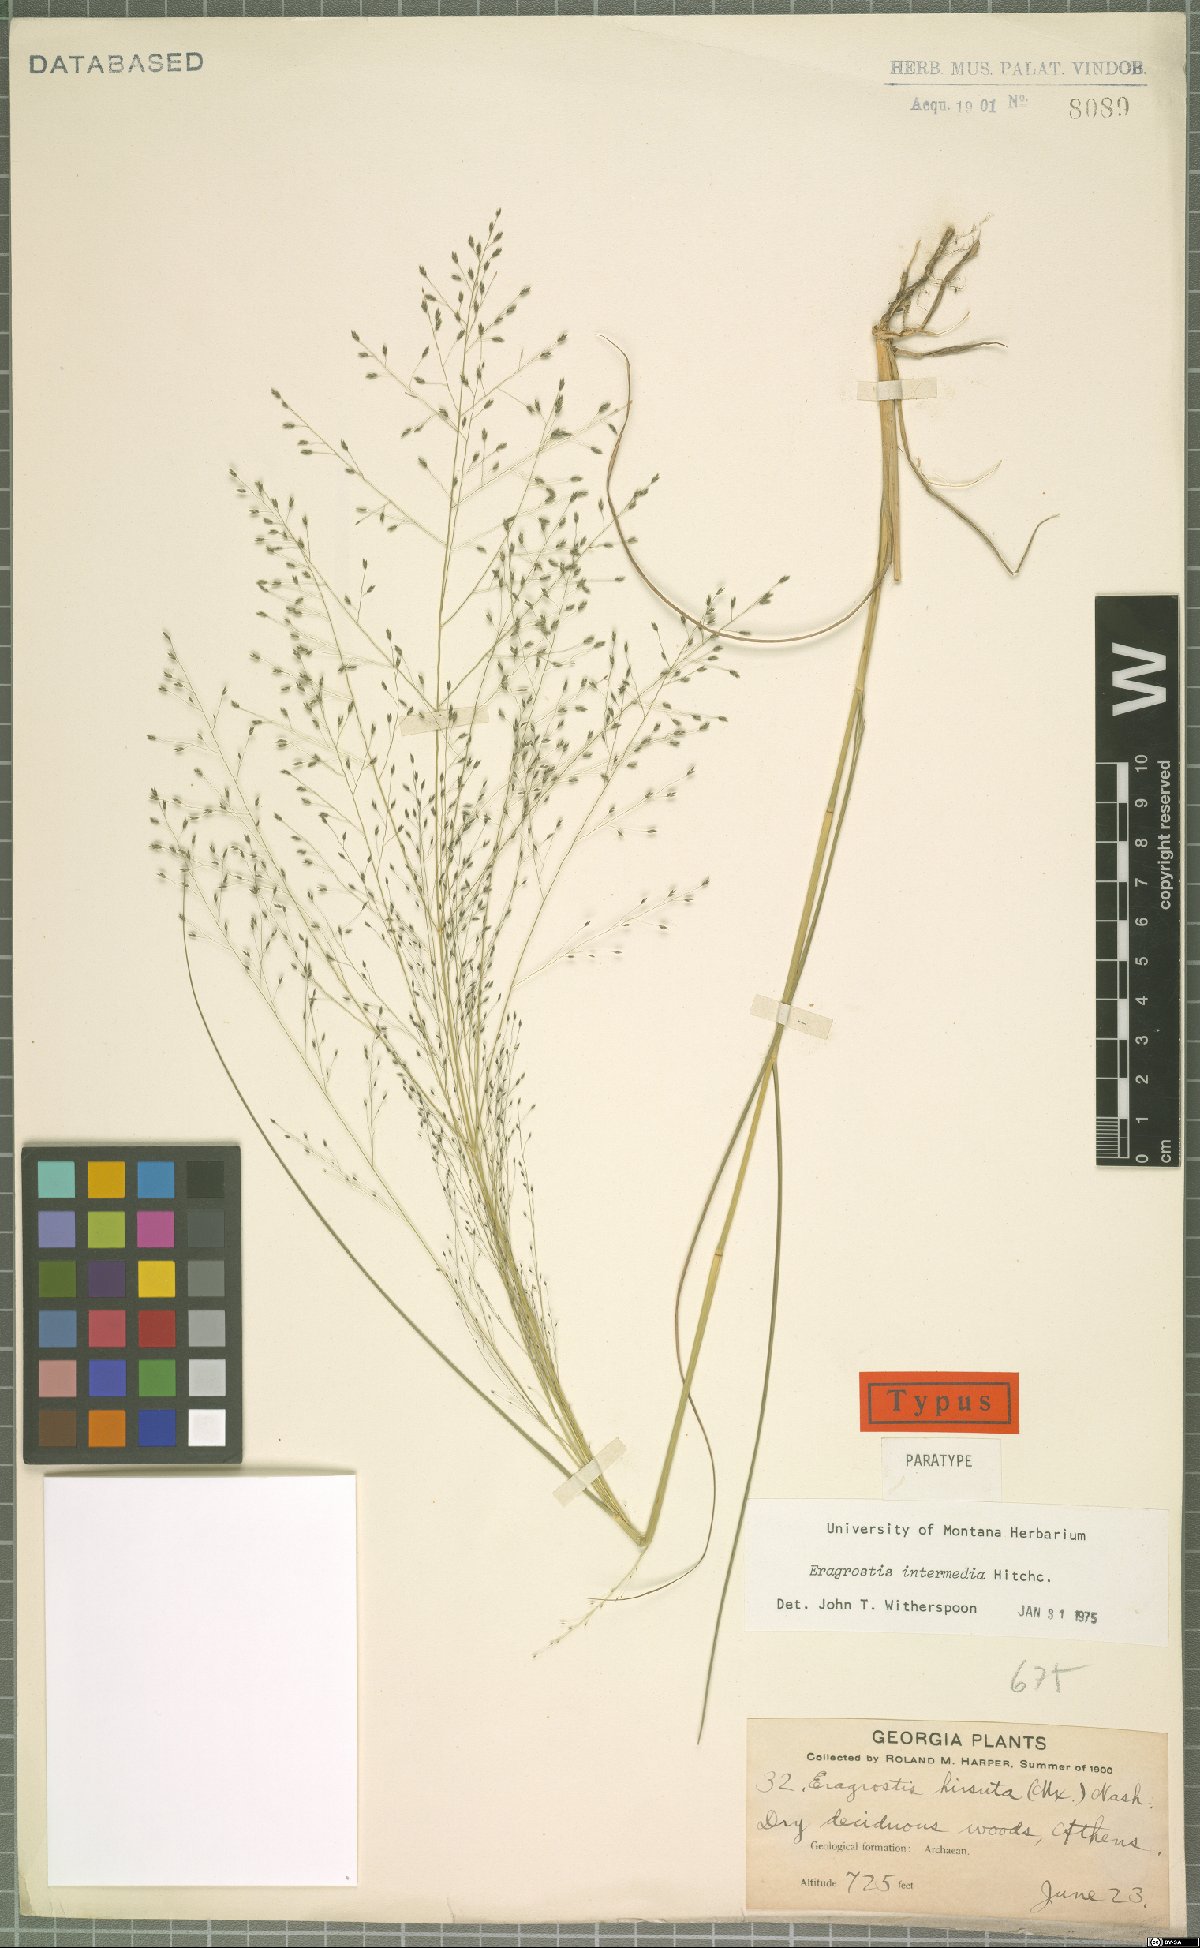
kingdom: Plantae
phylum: Tracheophyta
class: Liliopsida
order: Poales
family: Poaceae
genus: Eragrostis
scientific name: Eragrostis intermedia
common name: Plains love grass
